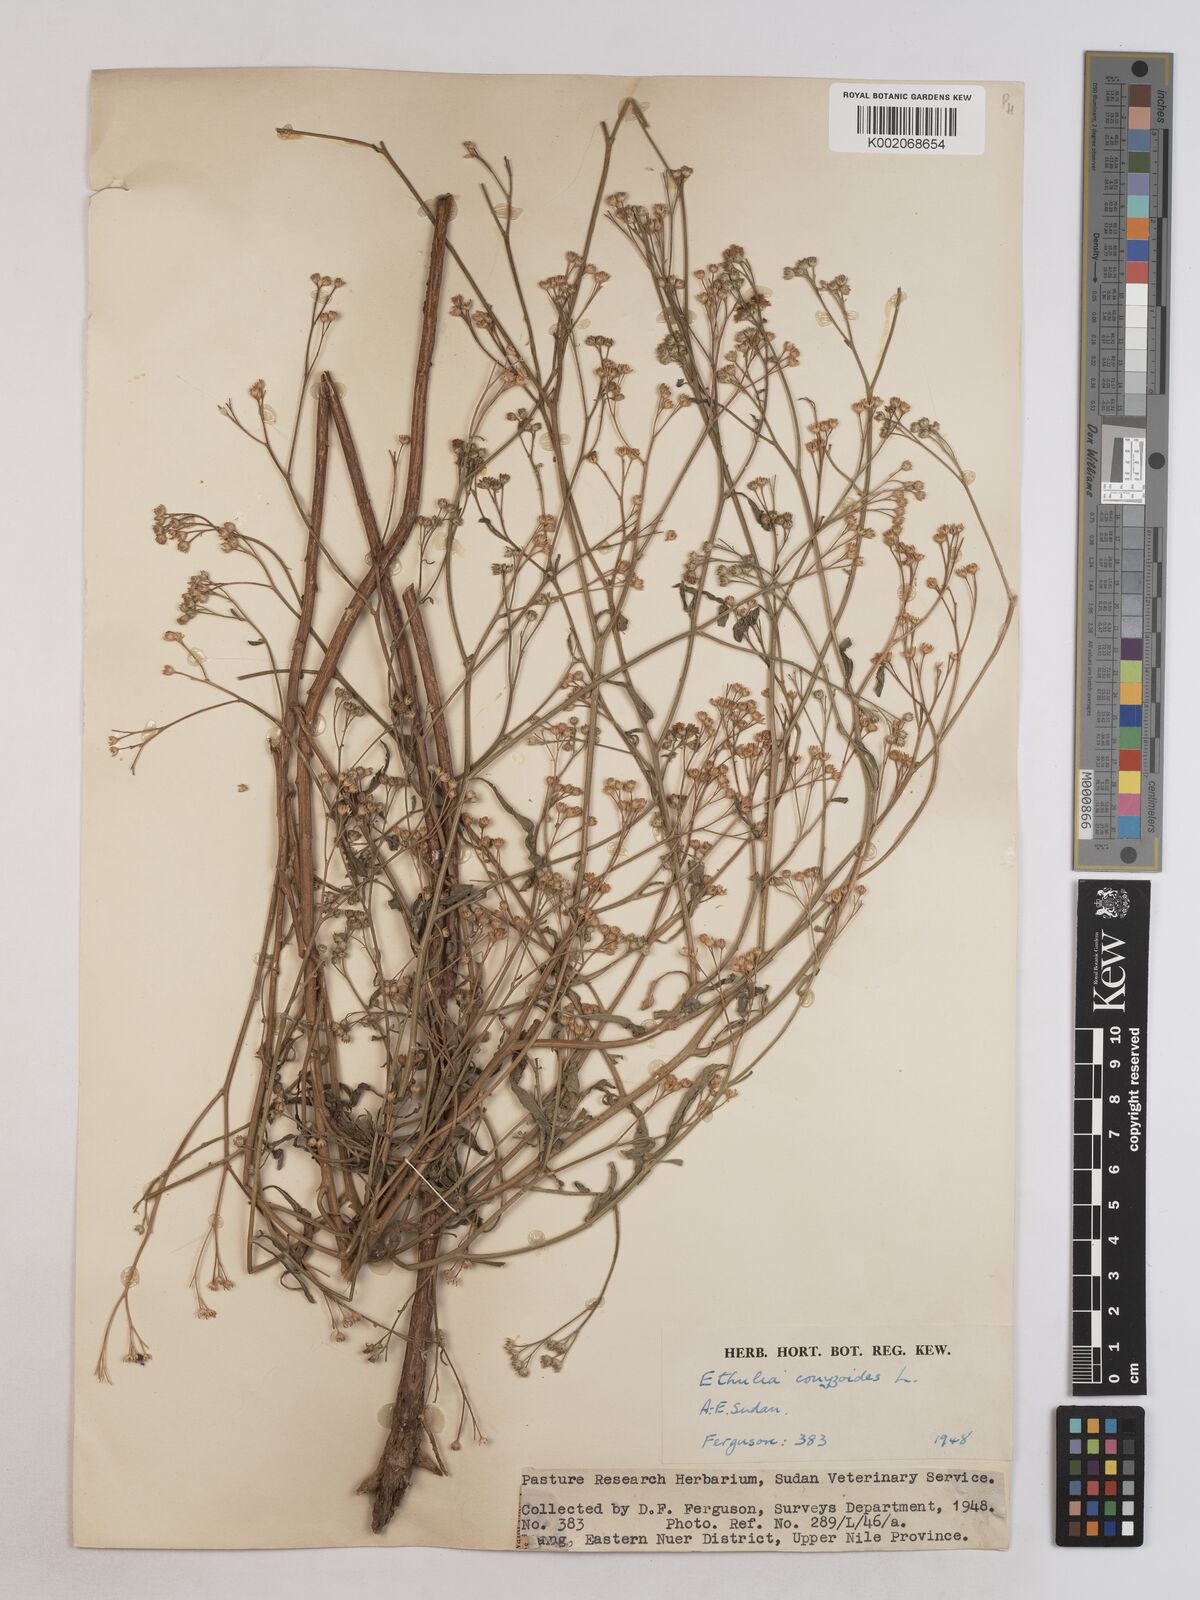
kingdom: Plantae
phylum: Tracheophyta
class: Magnoliopsida
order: Asterales
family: Asteraceae
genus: Ethulia
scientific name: Ethulia gracilis
